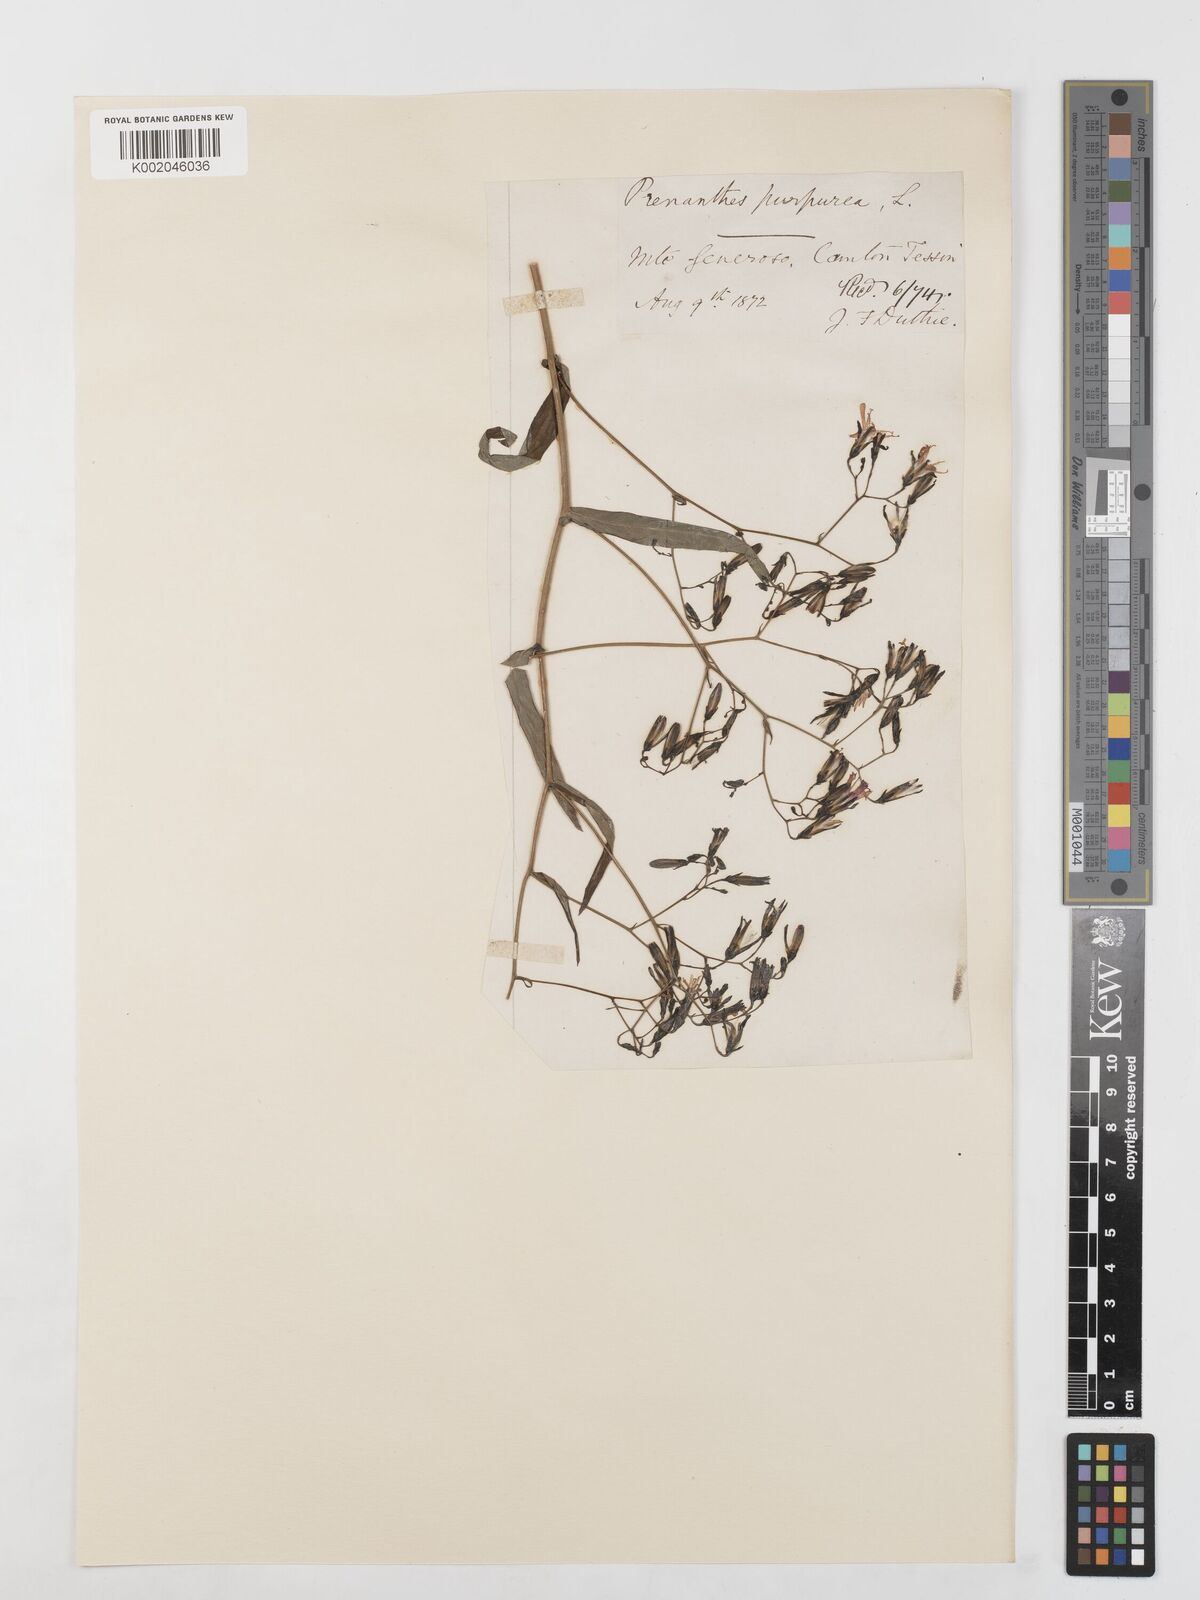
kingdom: Plantae
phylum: Tracheophyta
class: Magnoliopsida
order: Asterales
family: Asteraceae
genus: Prenanthes
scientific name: Prenanthes purpurea
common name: Purple lettuce
